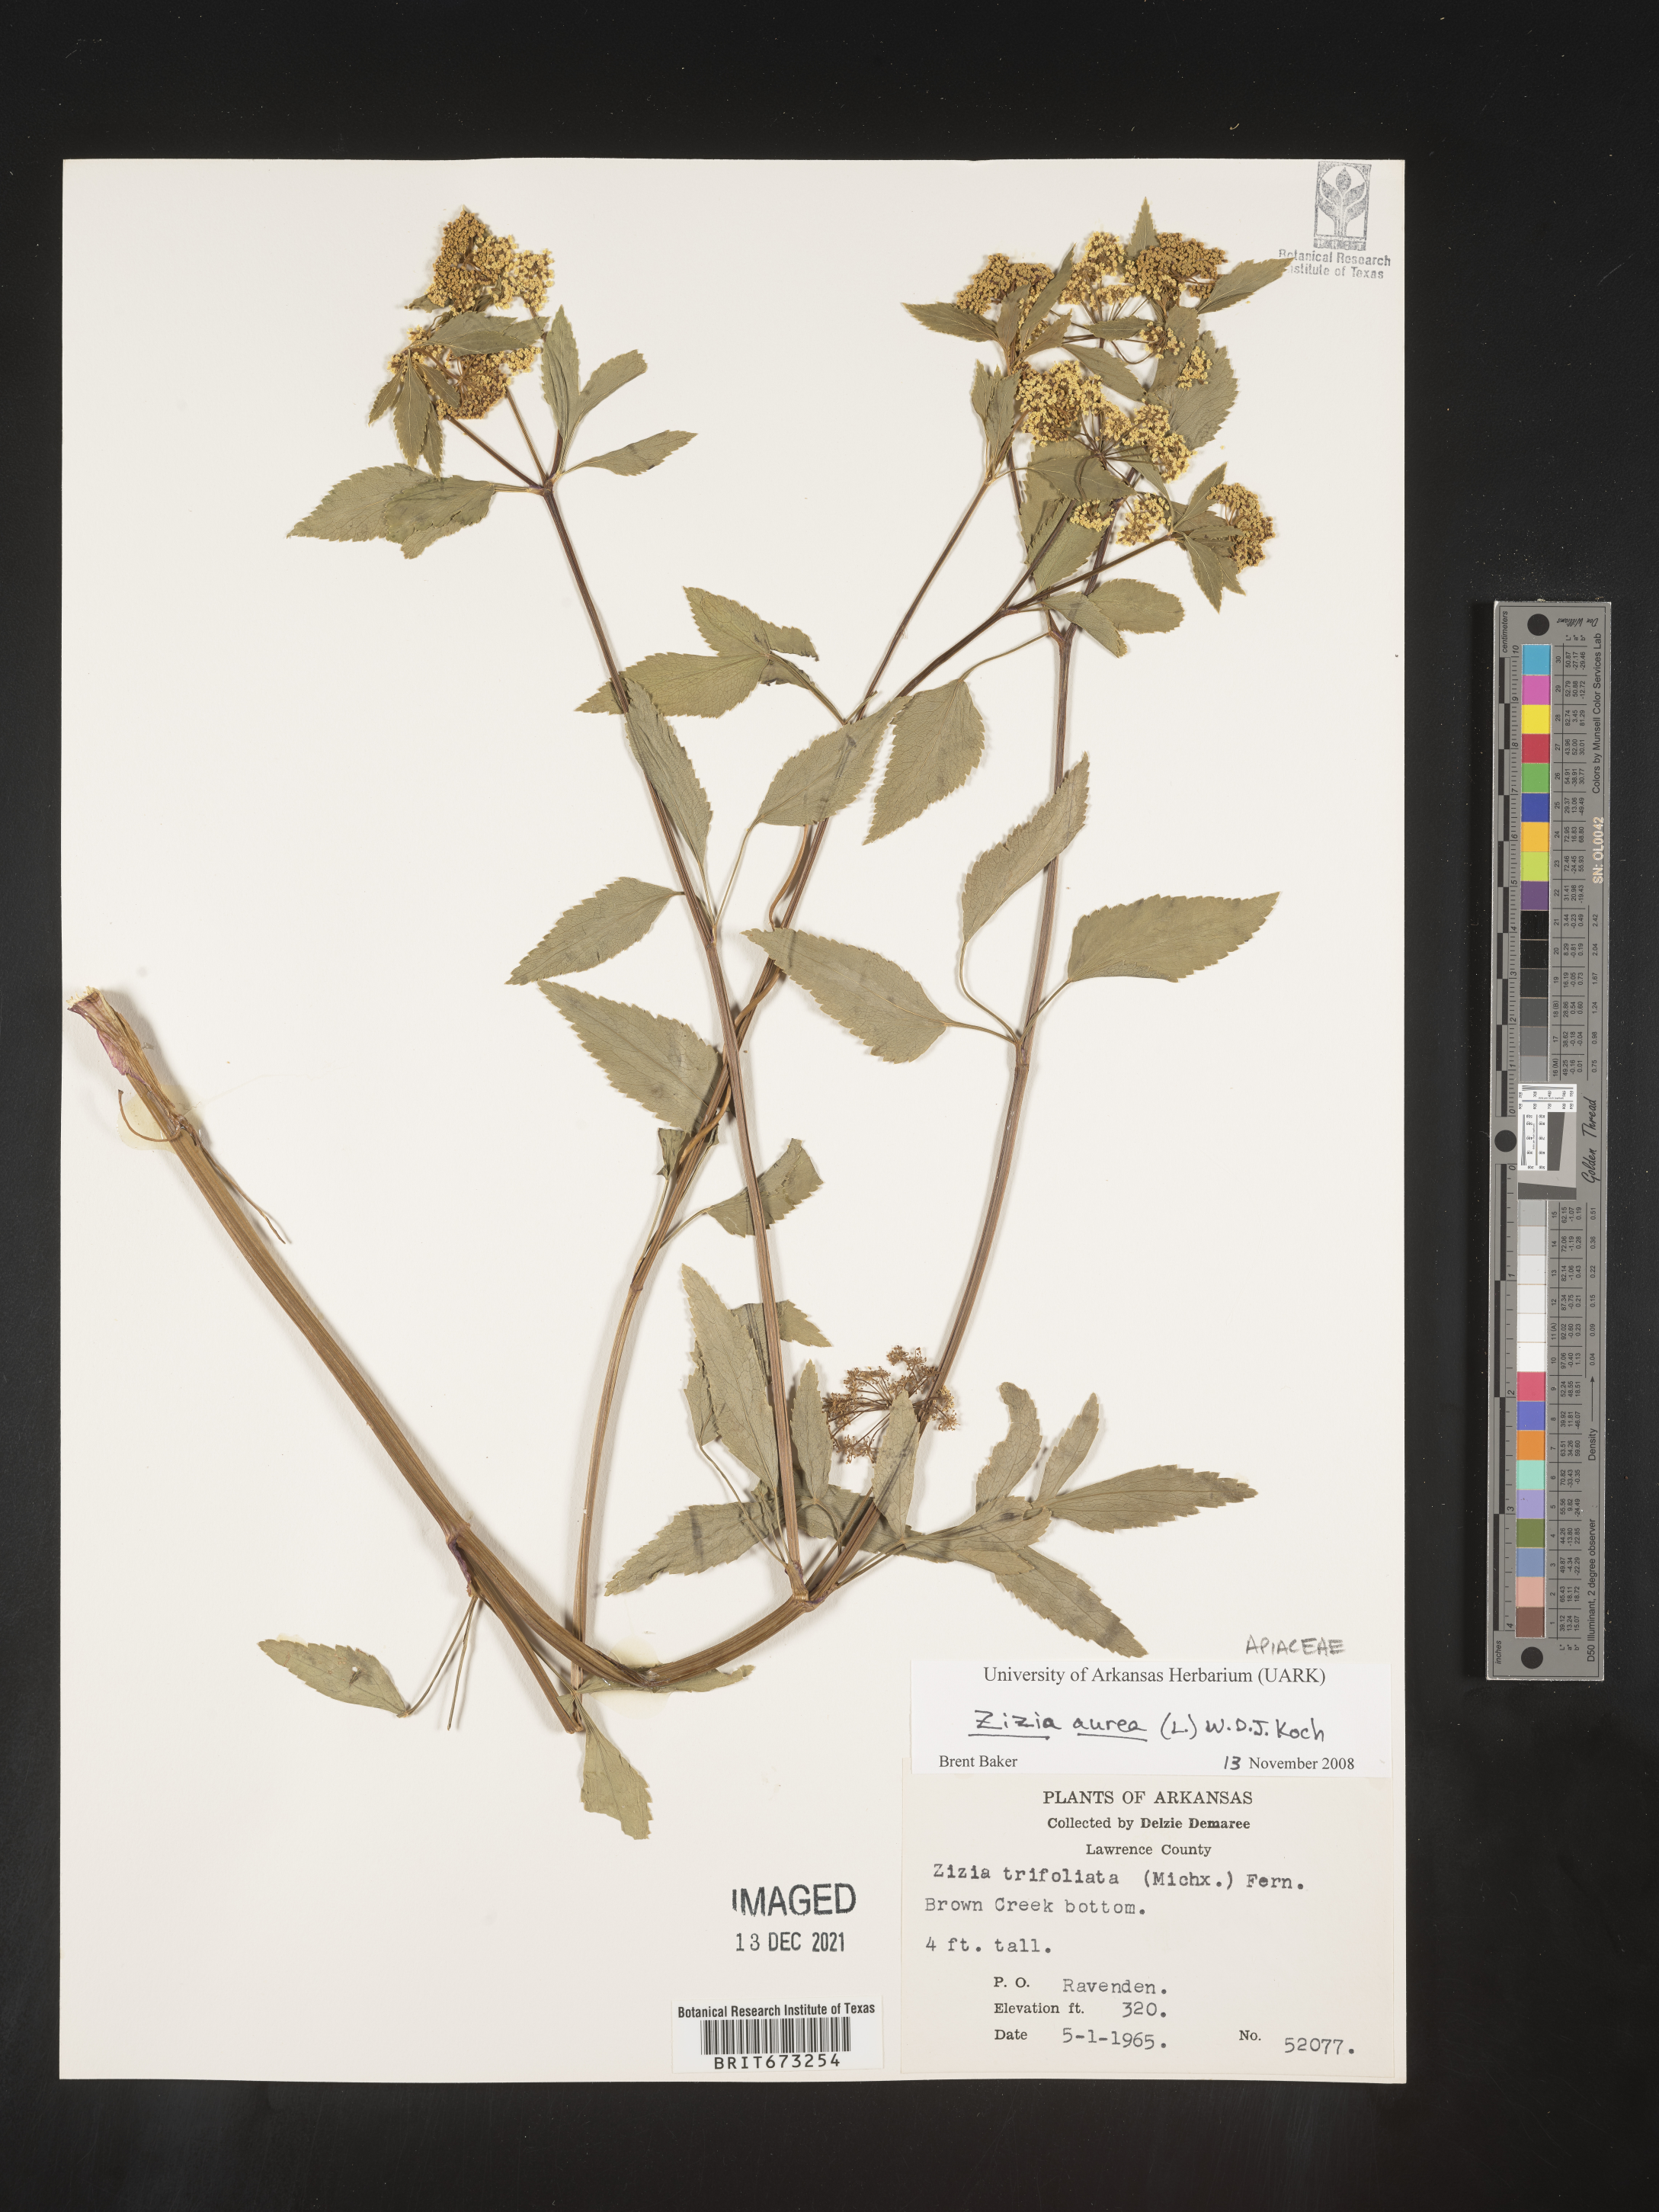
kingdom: Plantae
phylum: Tracheophyta
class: Magnoliopsida
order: Apiales
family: Apiaceae
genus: Zizia
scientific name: Zizia aurea
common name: Golden alexanders
